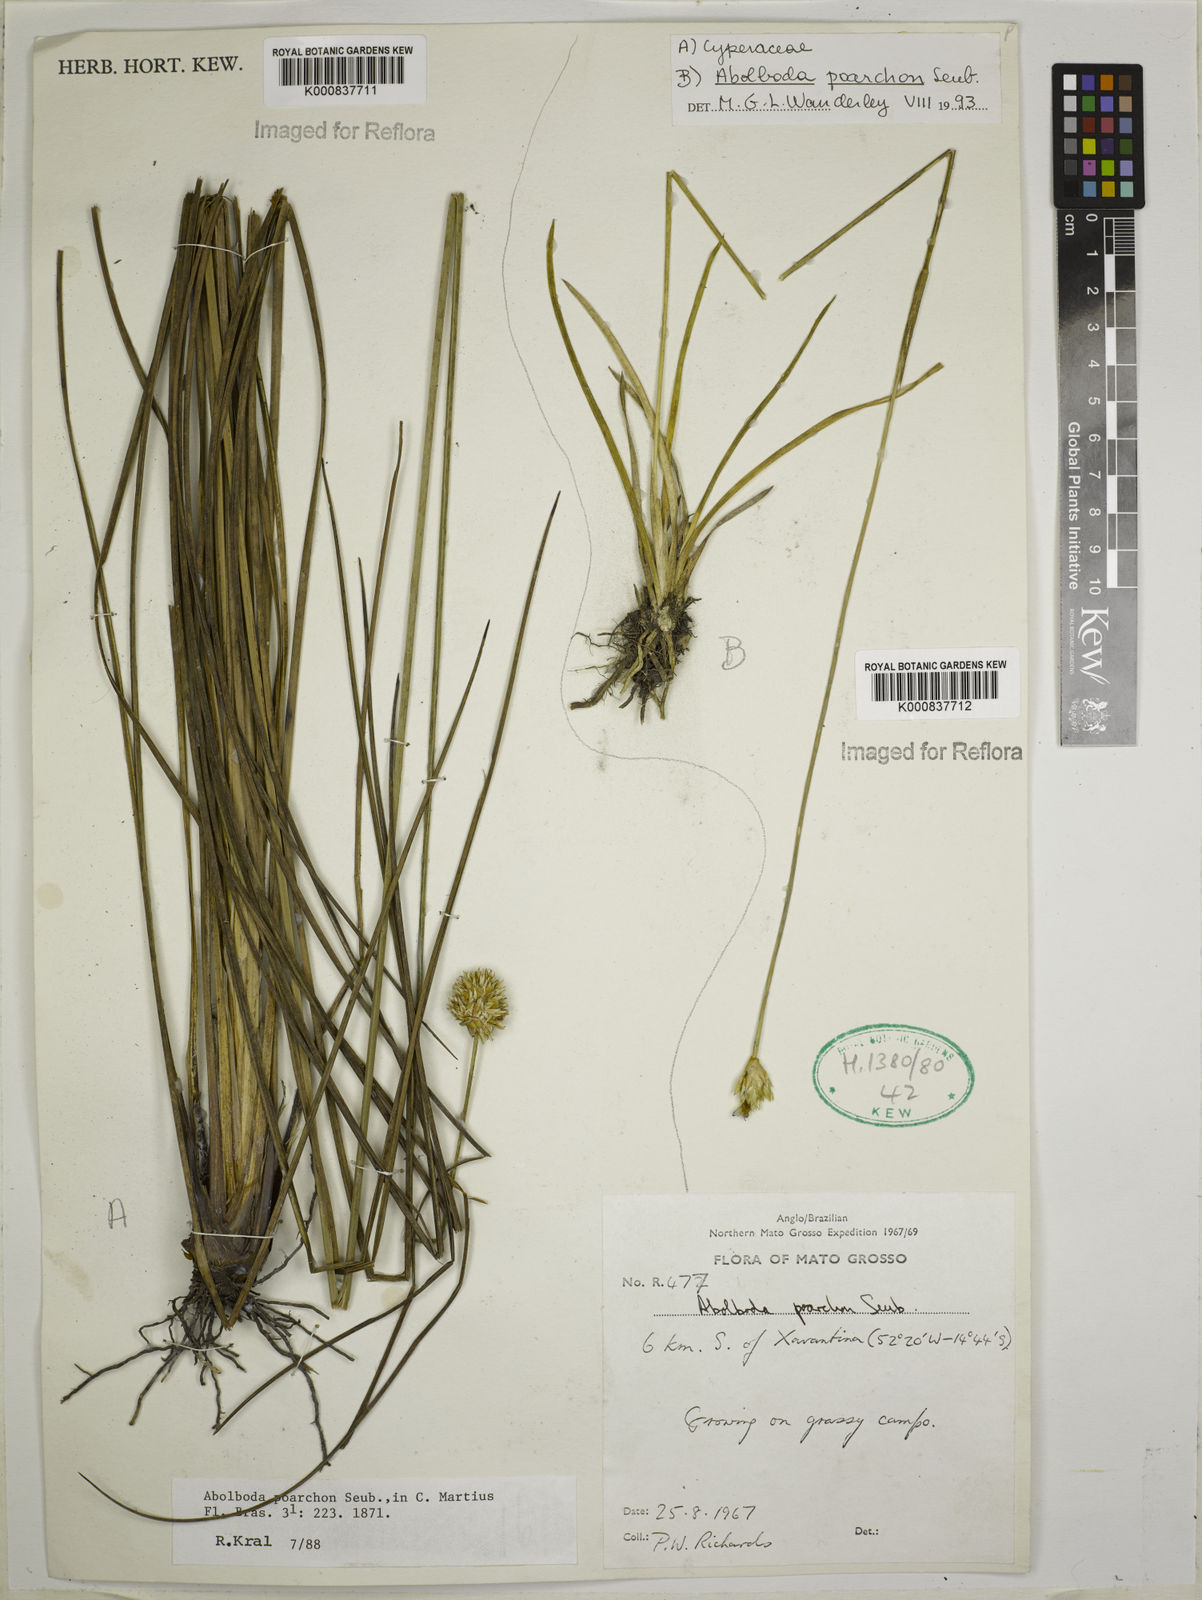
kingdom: Plantae
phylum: Tracheophyta
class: Liliopsida
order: Poales
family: Xyridaceae
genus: Abolboda
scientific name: Abolboda poarchon
